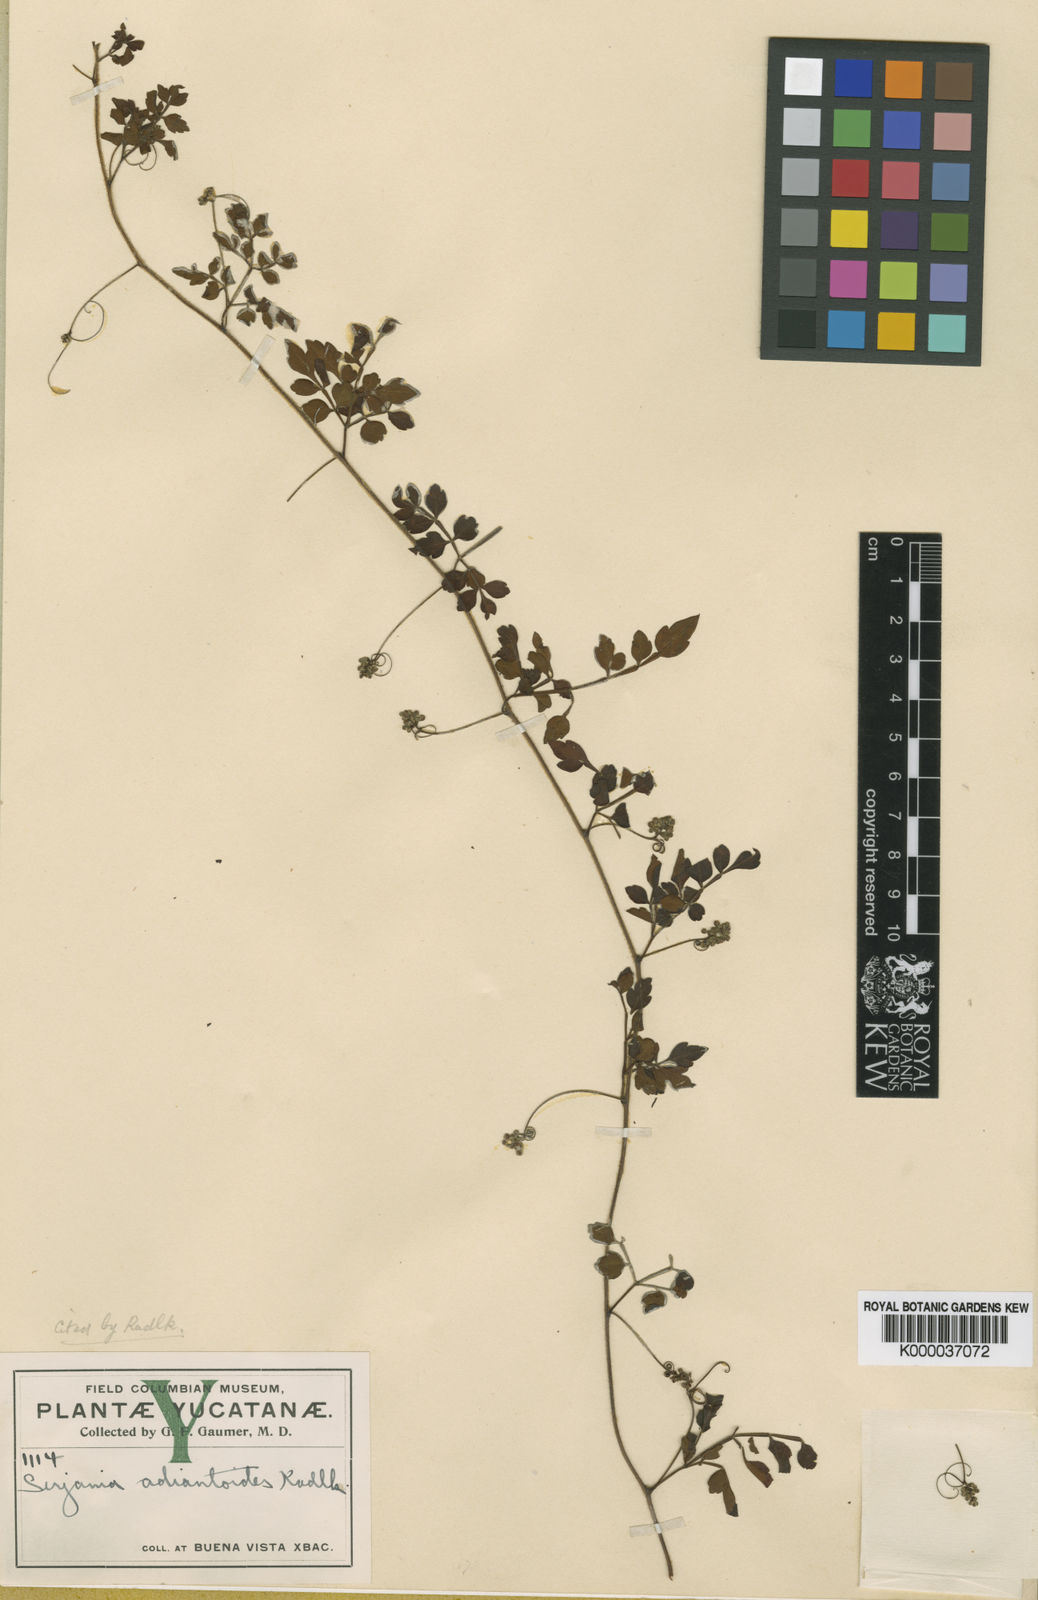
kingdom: Plantae
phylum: Tracheophyta
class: Magnoliopsida
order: Sapindales
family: Sapindaceae
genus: Serjania
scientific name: Serjania adiantoides
